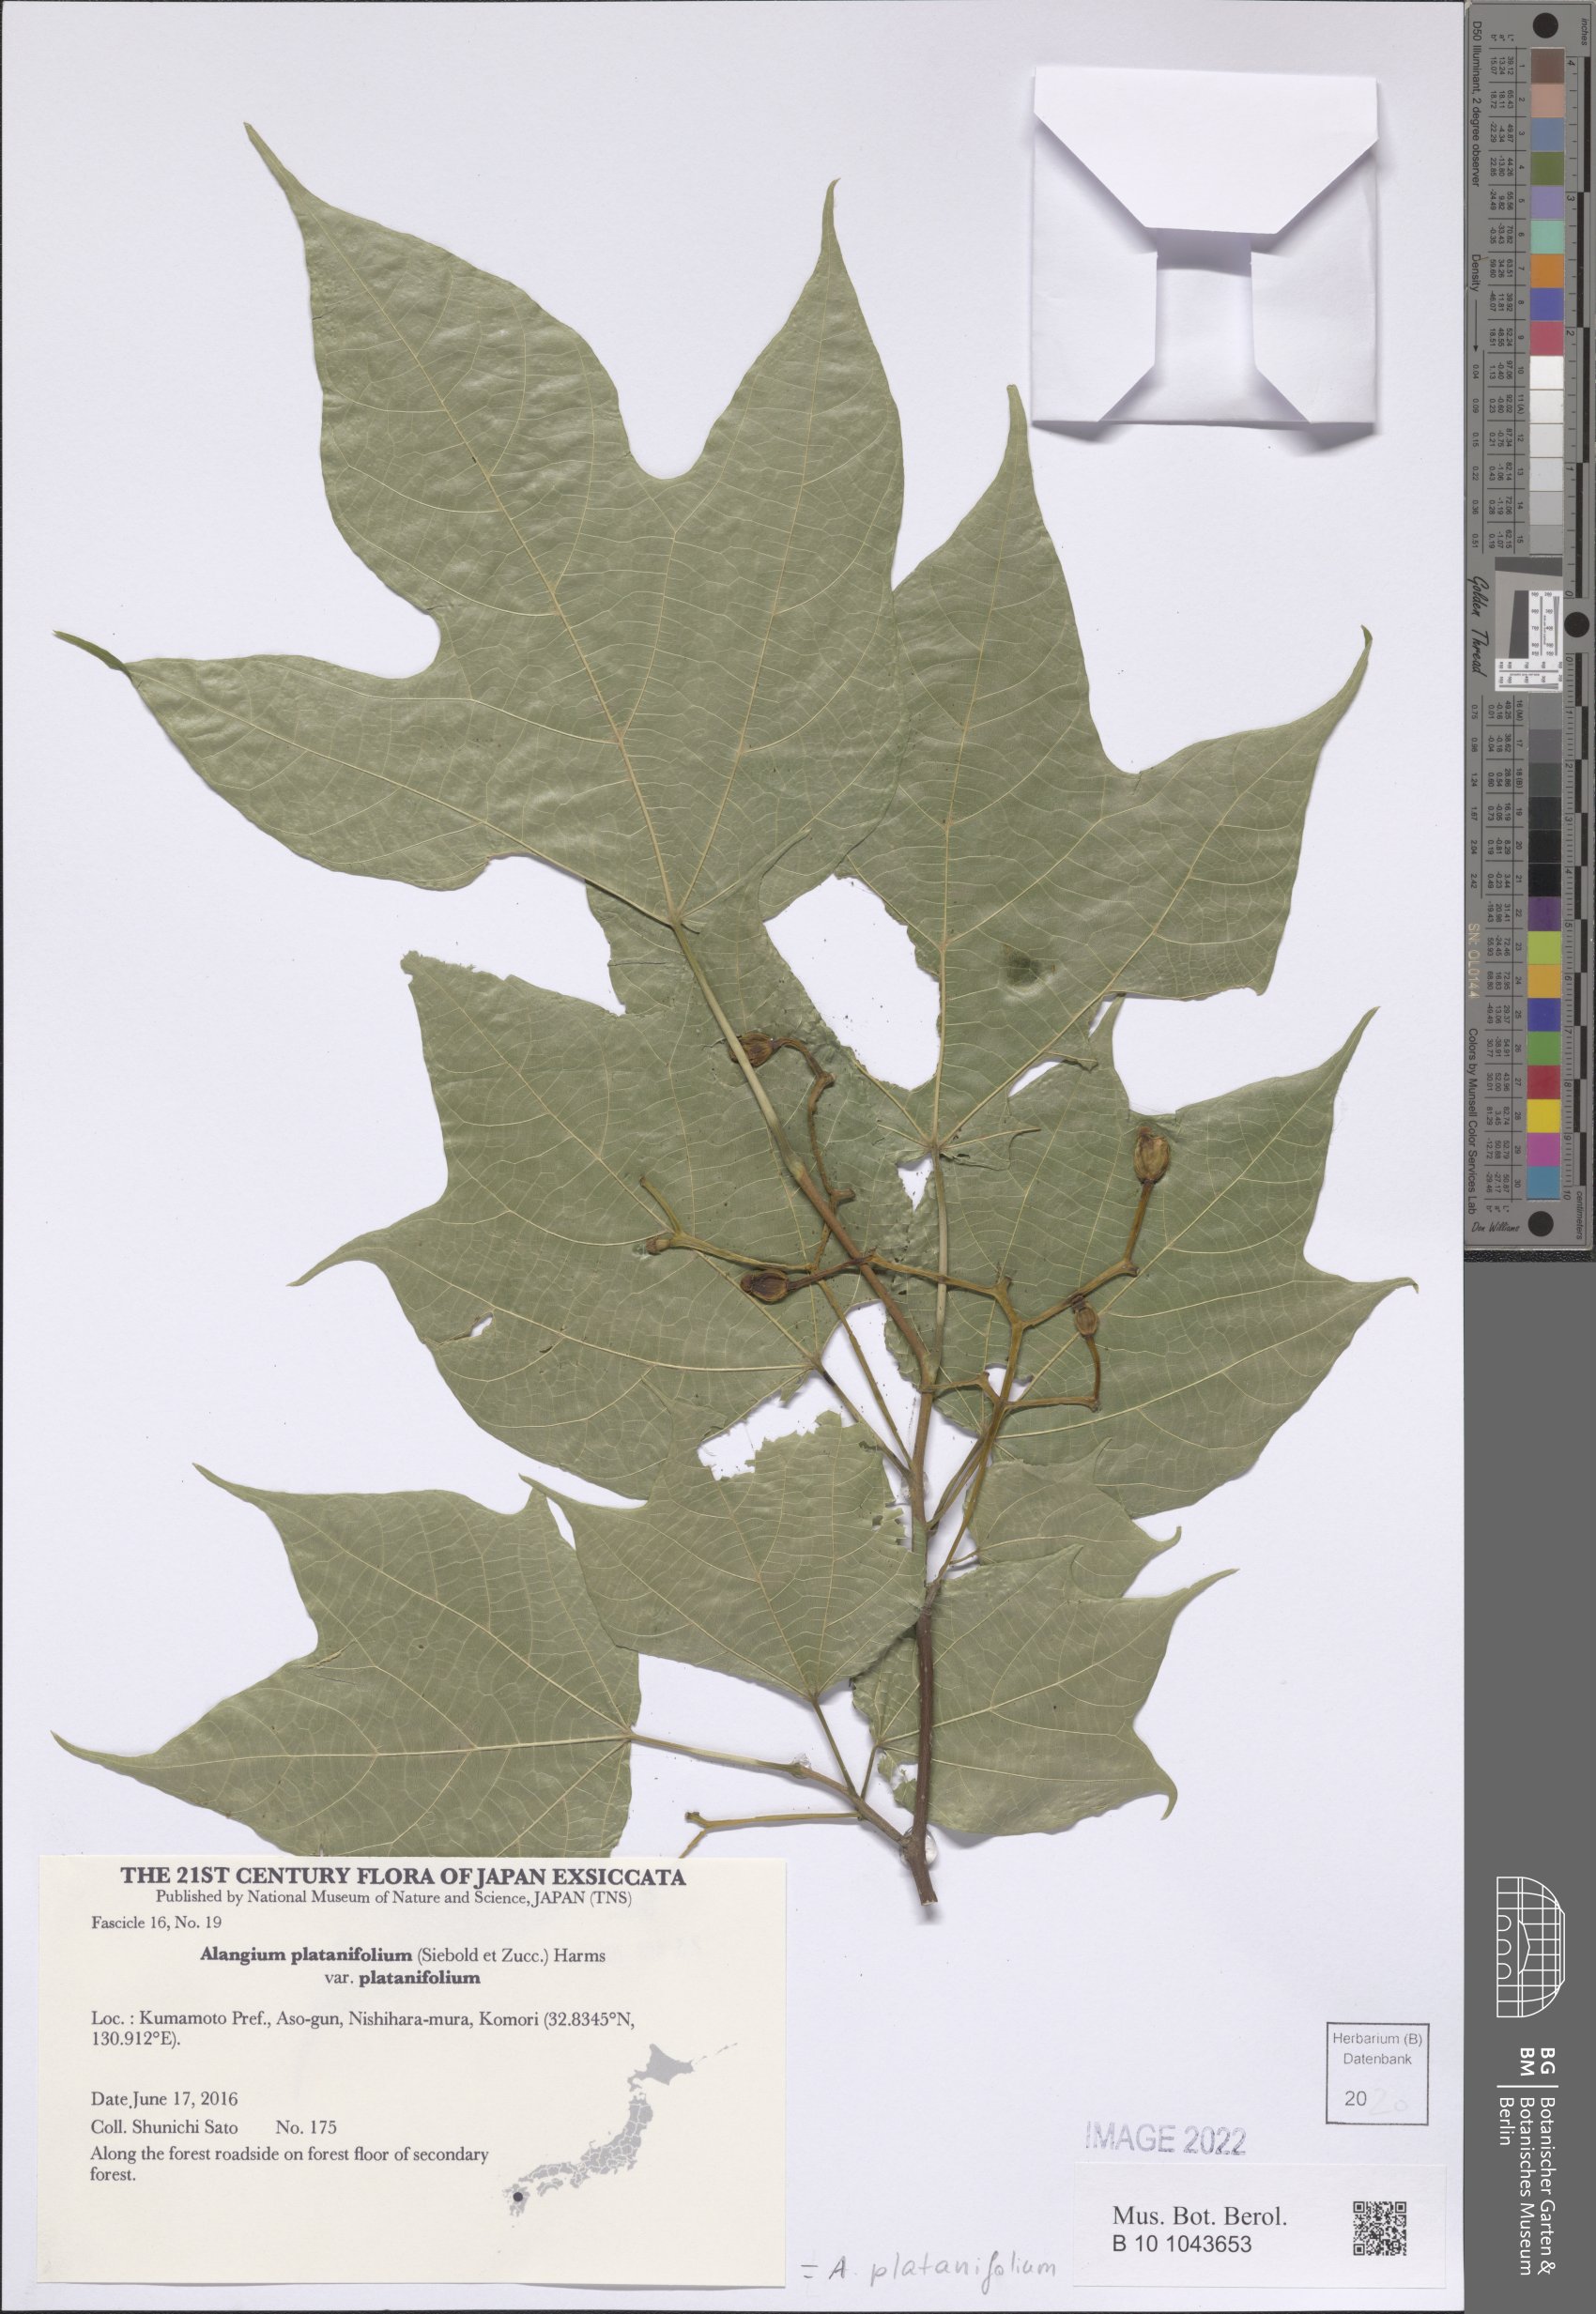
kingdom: Plantae
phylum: Tracheophyta
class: Magnoliopsida
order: Cornales
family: Cornaceae
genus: Alangium
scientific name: Alangium platanifolium
